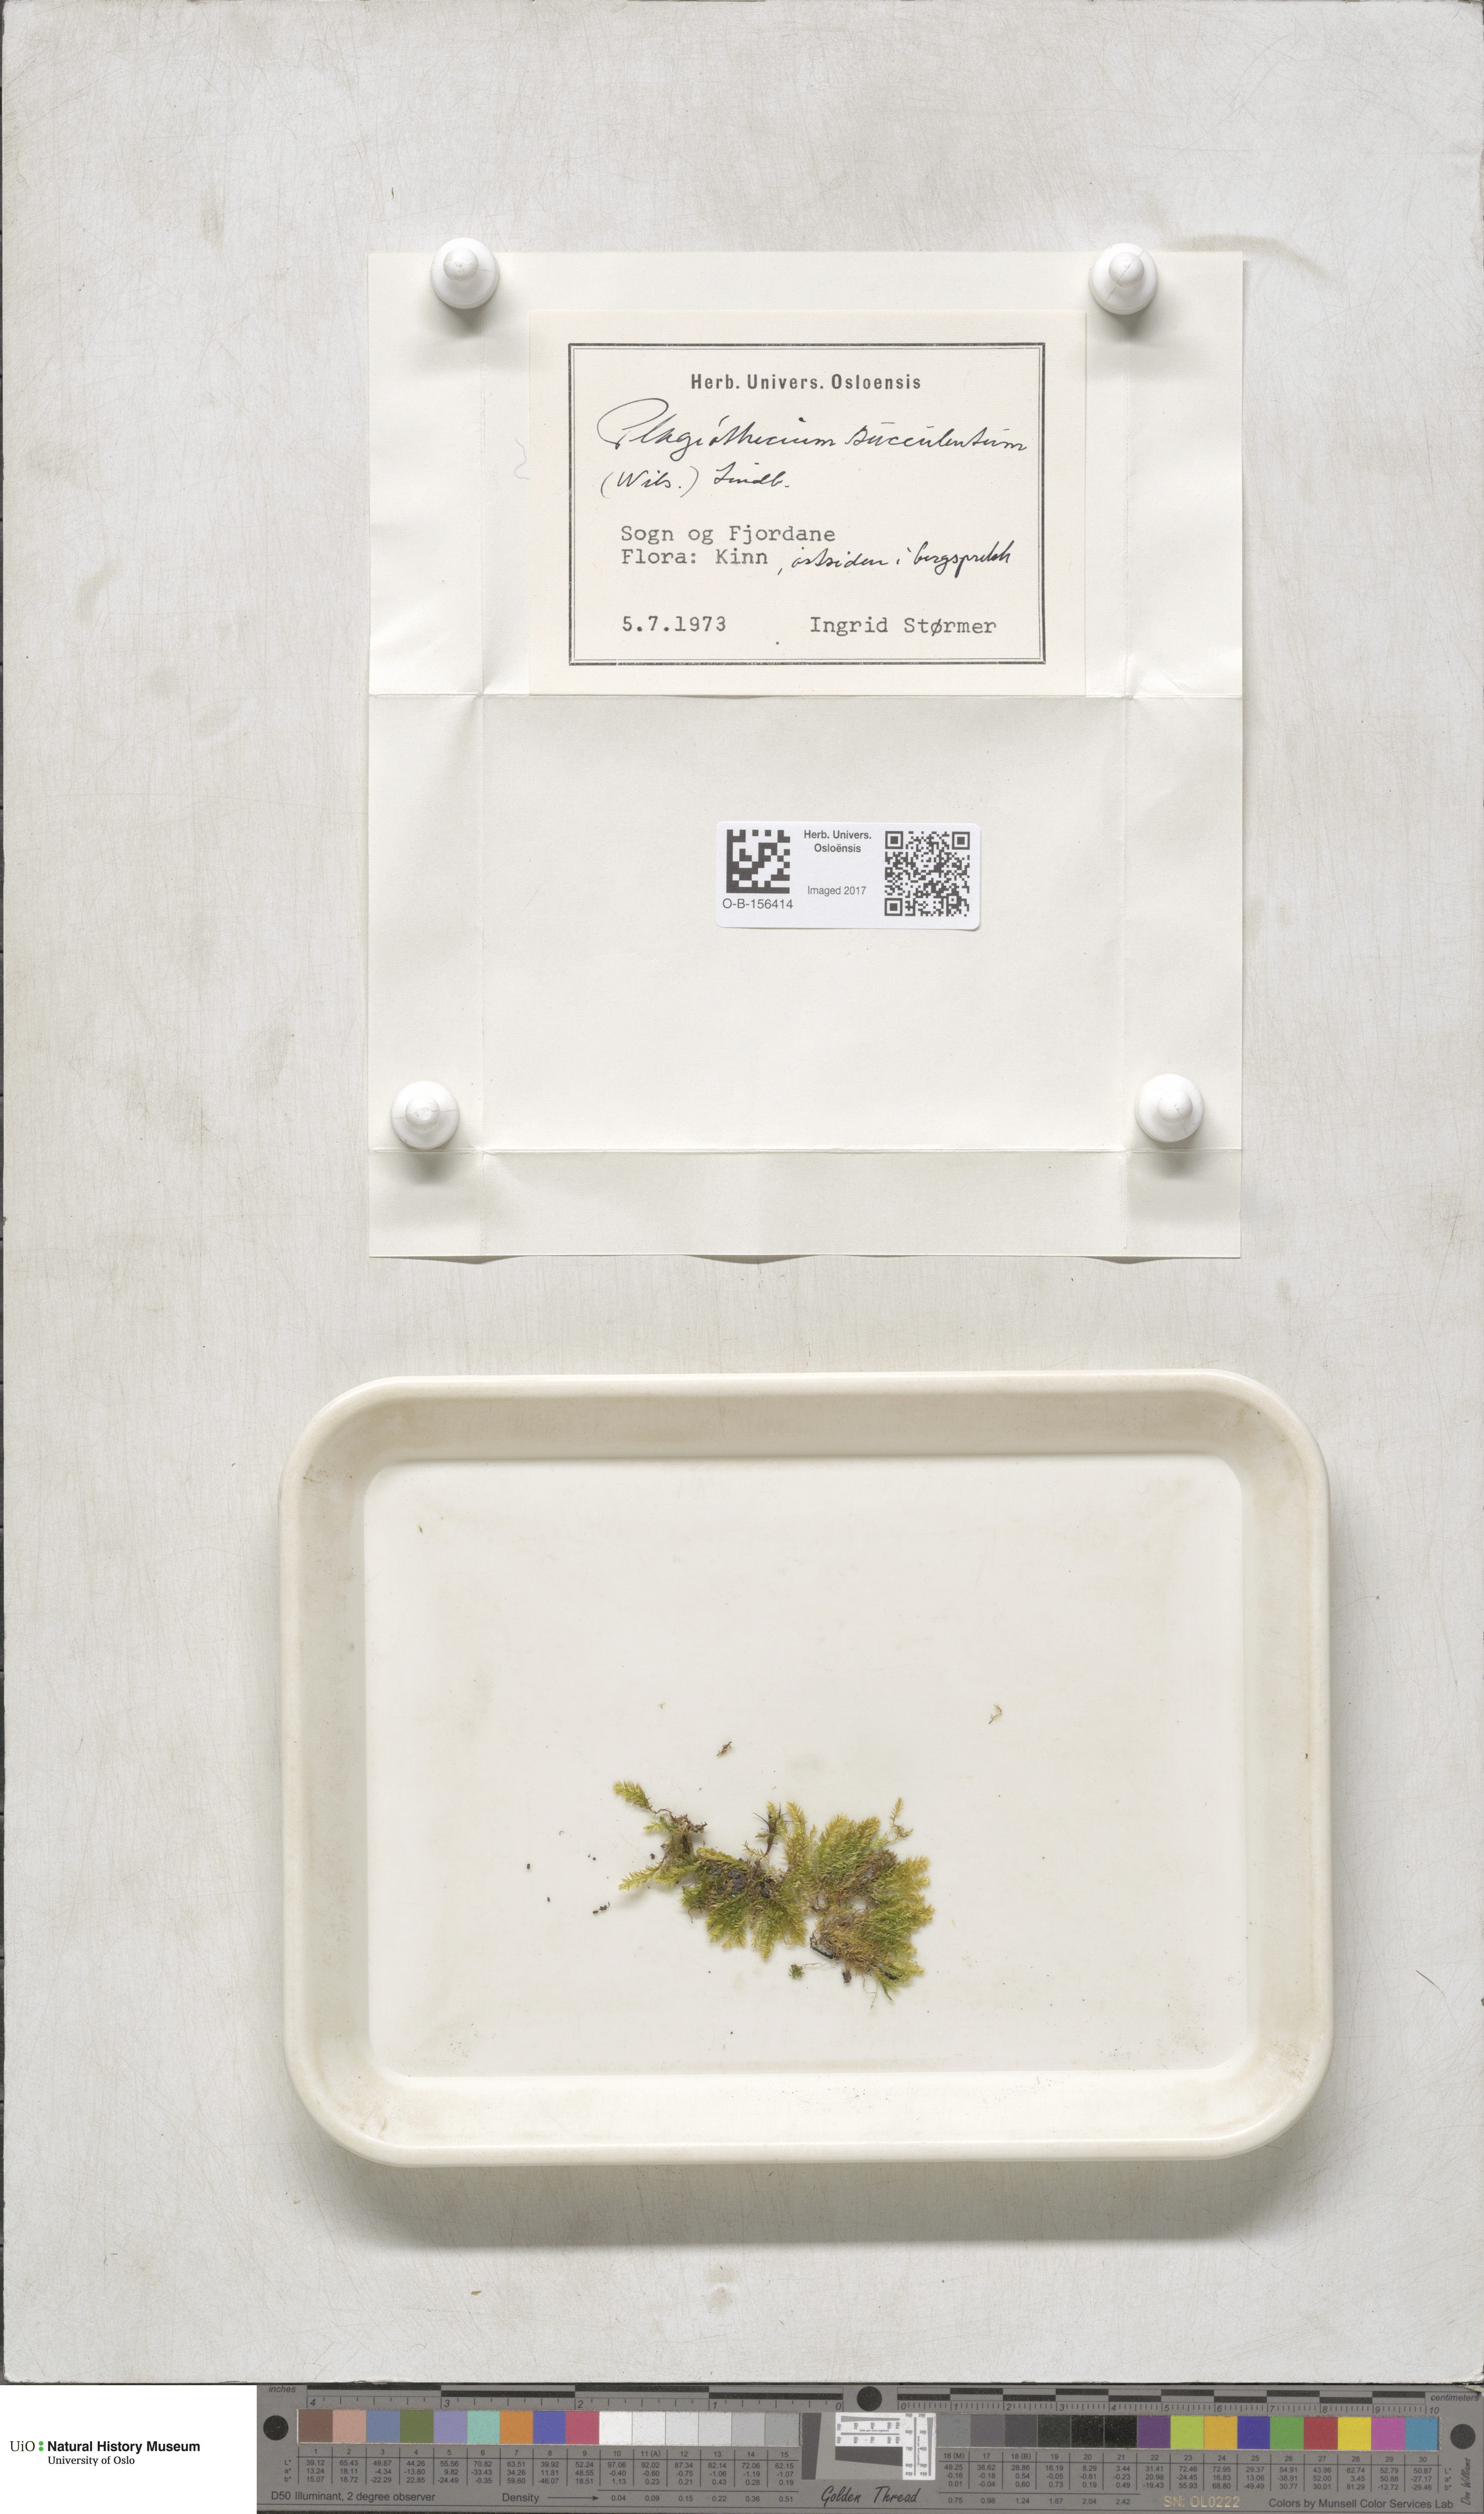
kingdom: Plantae
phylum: Bryophyta
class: Bryopsida
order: Hypnales
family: Plagiotheciaceae
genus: Plagiothecium
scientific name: Plagiothecium nemorale
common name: Woodsy silk-moss
